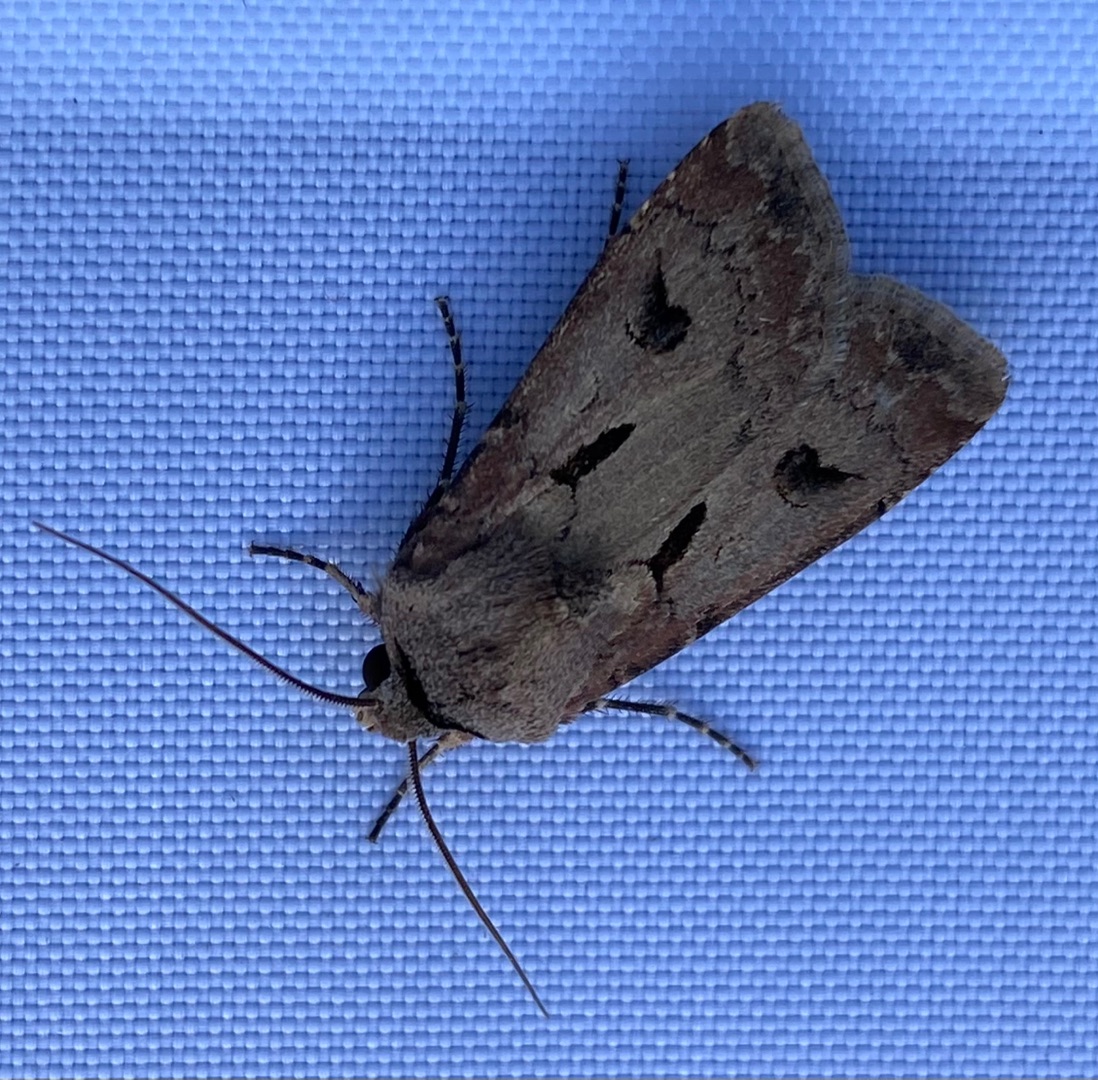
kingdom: Animalia
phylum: Arthropoda
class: Insecta
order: Lepidoptera
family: Noctuidae
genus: Agrotis
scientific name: Agrotis exclamationis
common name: Udråbstegnsugle
